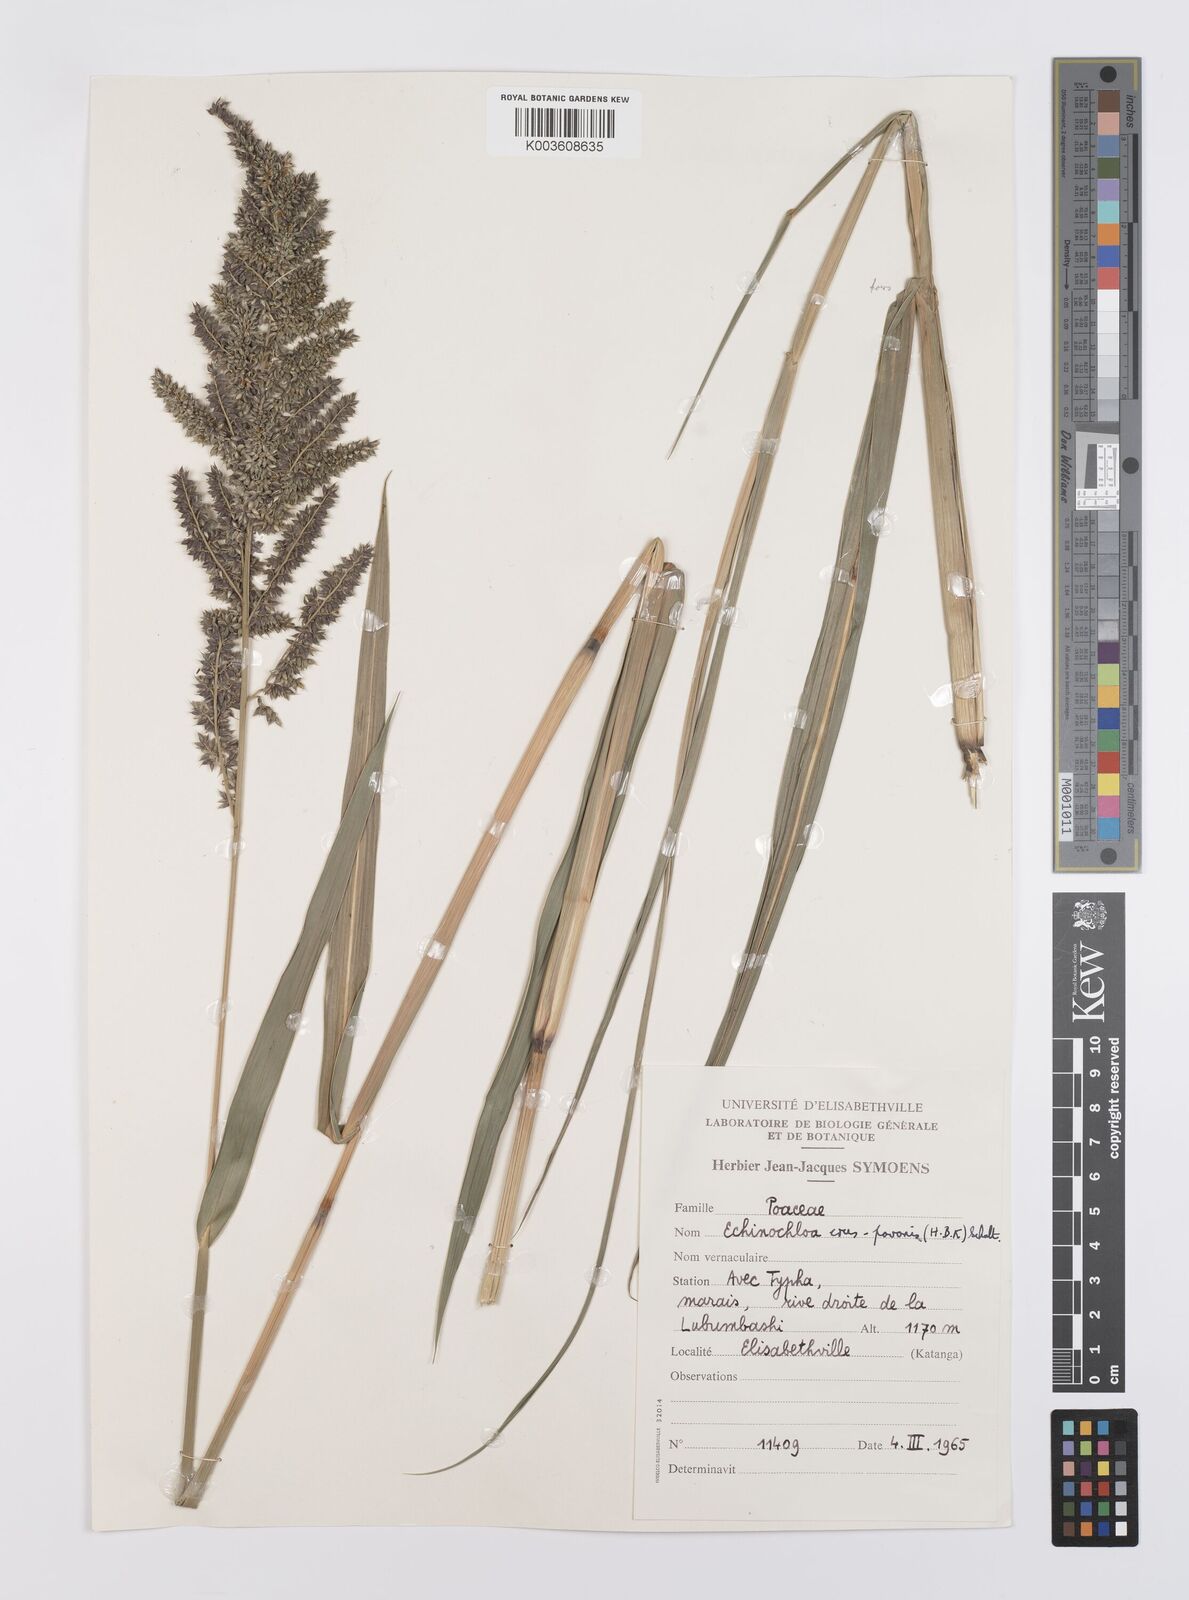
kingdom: Plantae
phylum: Tracheophyta
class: Liliopsida
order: Poales
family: Poaceae
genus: Echinochloa
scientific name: Echinochloa crus-pavonis
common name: Gulf cockspur grass
